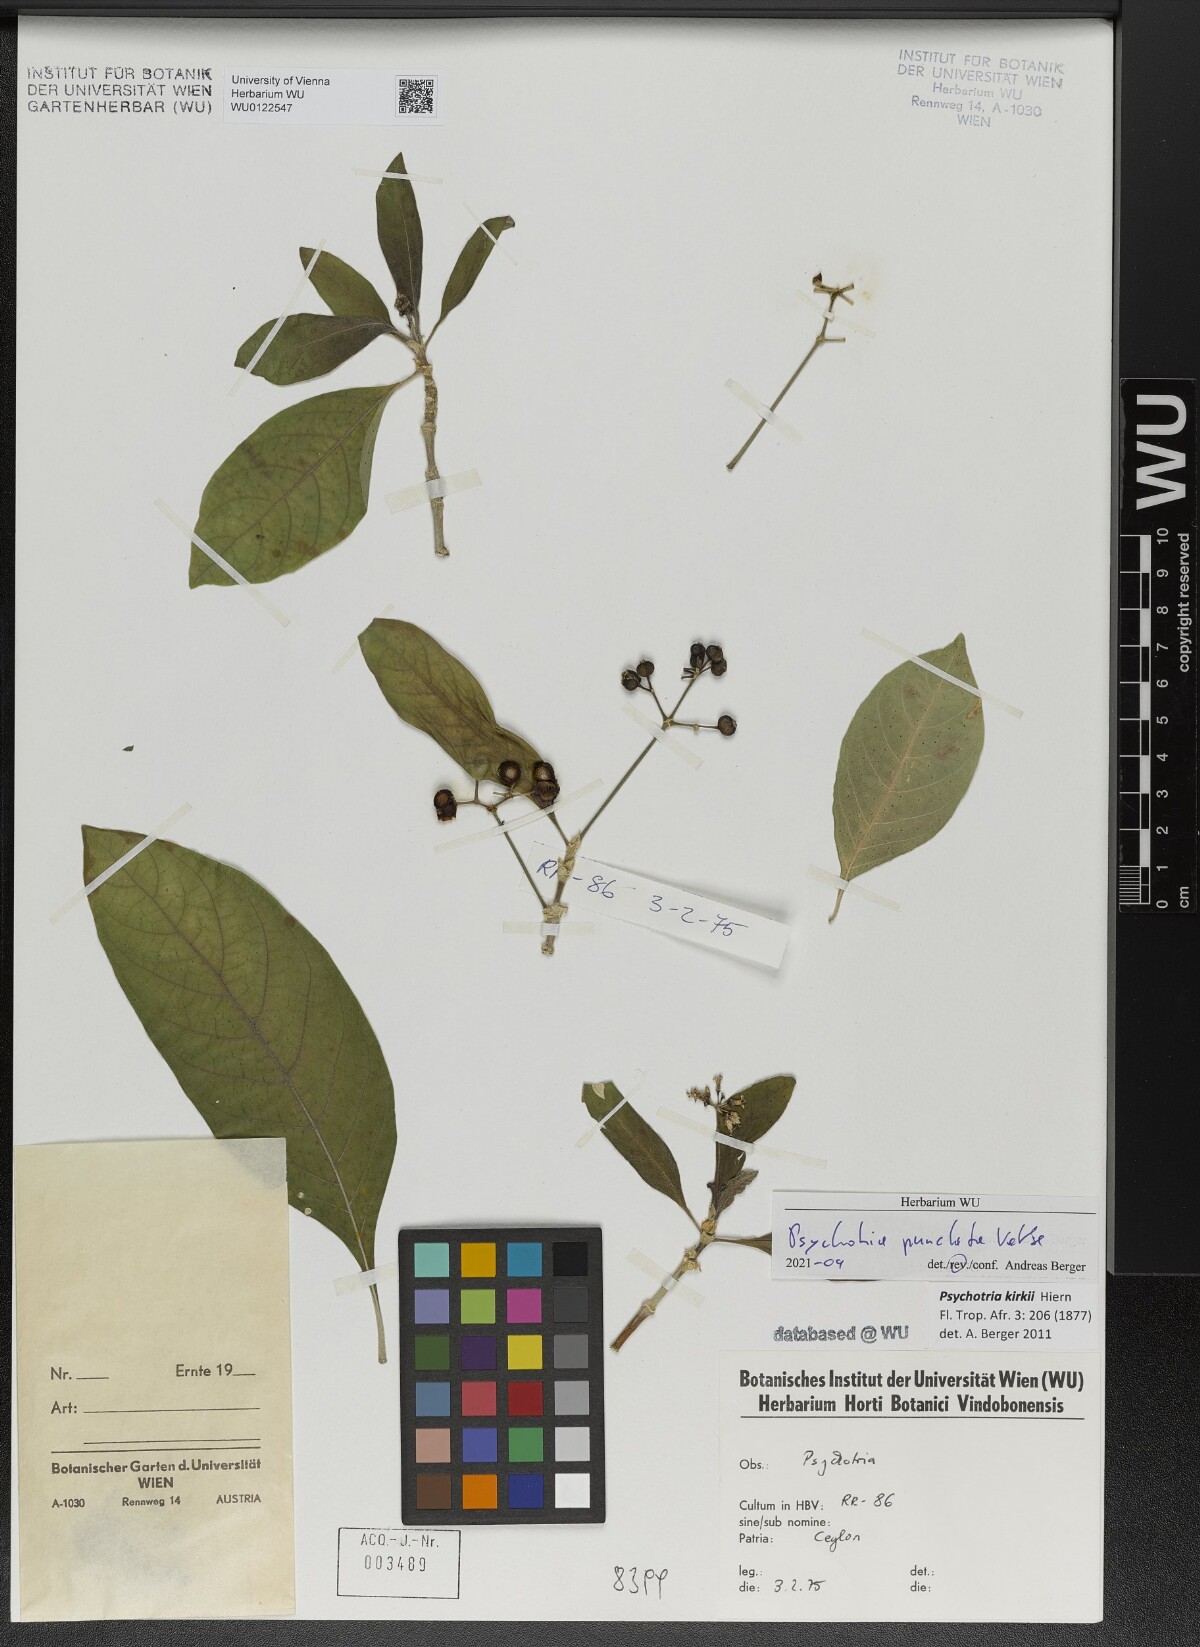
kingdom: Plantae
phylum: Tracheophyta
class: Magnoliopsida
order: Gentianales
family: Rubiaceae
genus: Psychotria
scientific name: Psychotria punctata
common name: Dotted wild coffee
